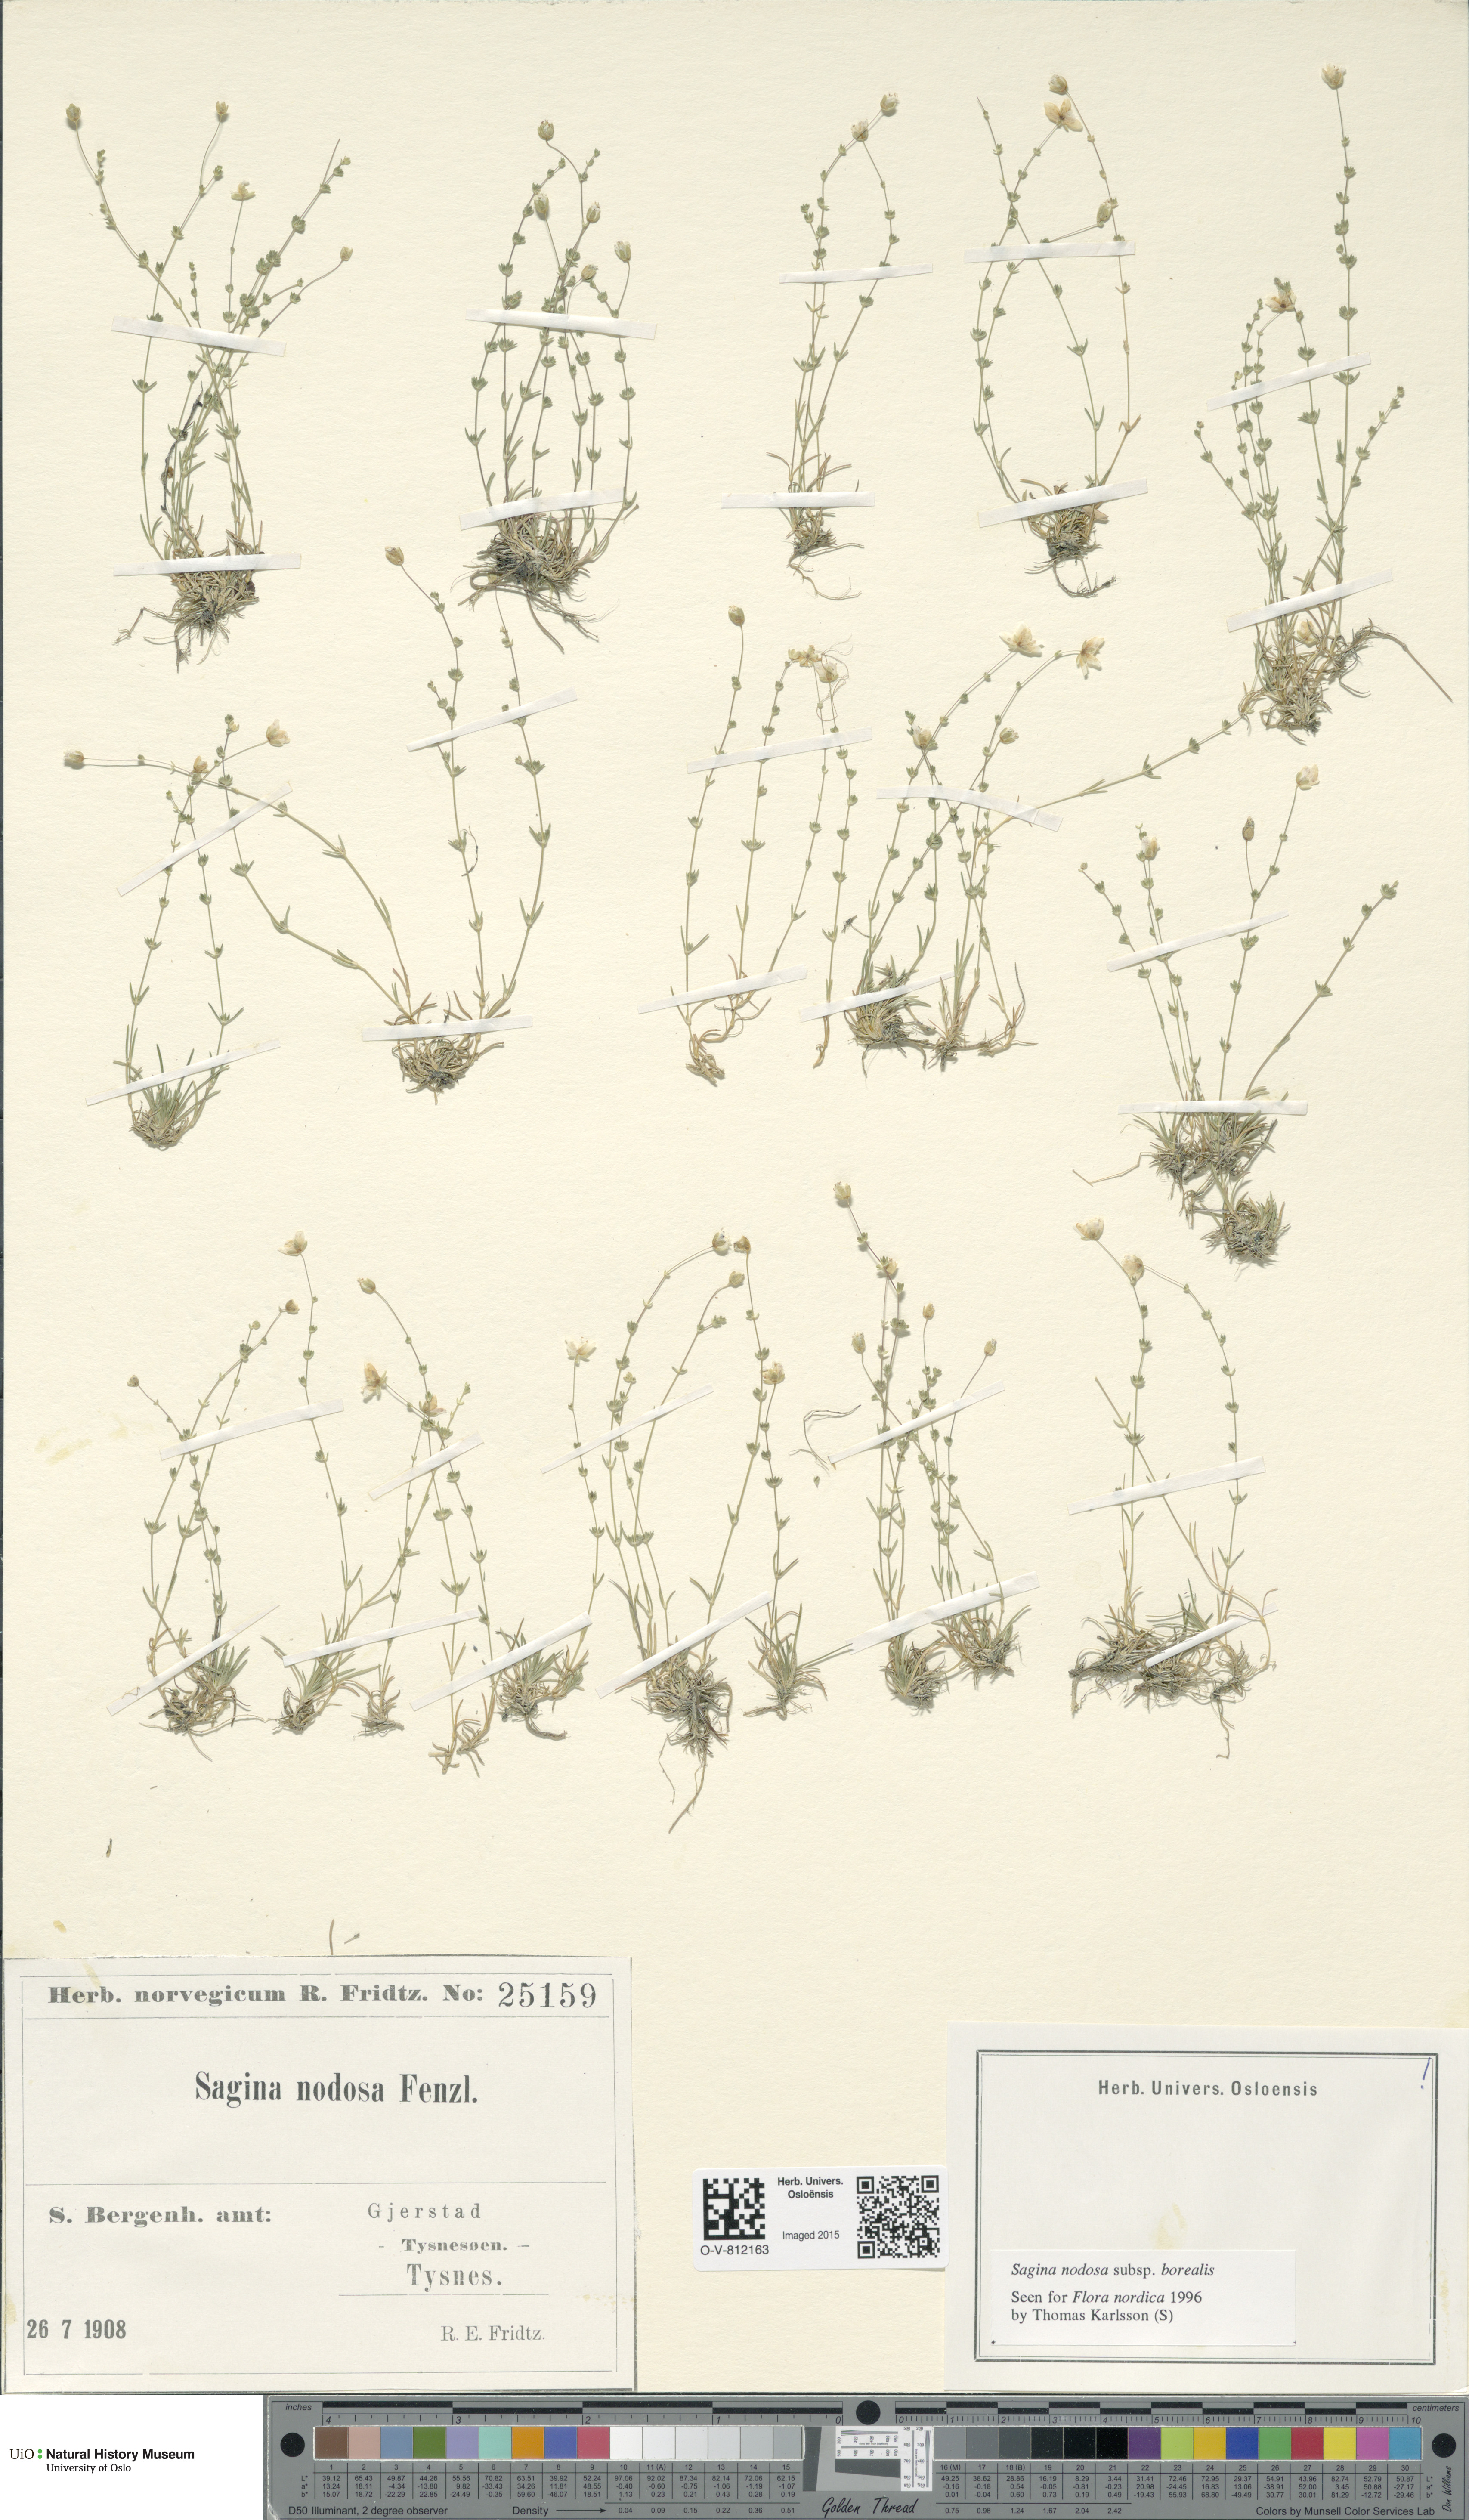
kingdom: Plantae
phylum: Tracheophyta
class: Magnoliopsida
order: Caryophyllales
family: Caryophyllaceae
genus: Sagina
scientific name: Sagina nodosa
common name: Knotted pearlwort
